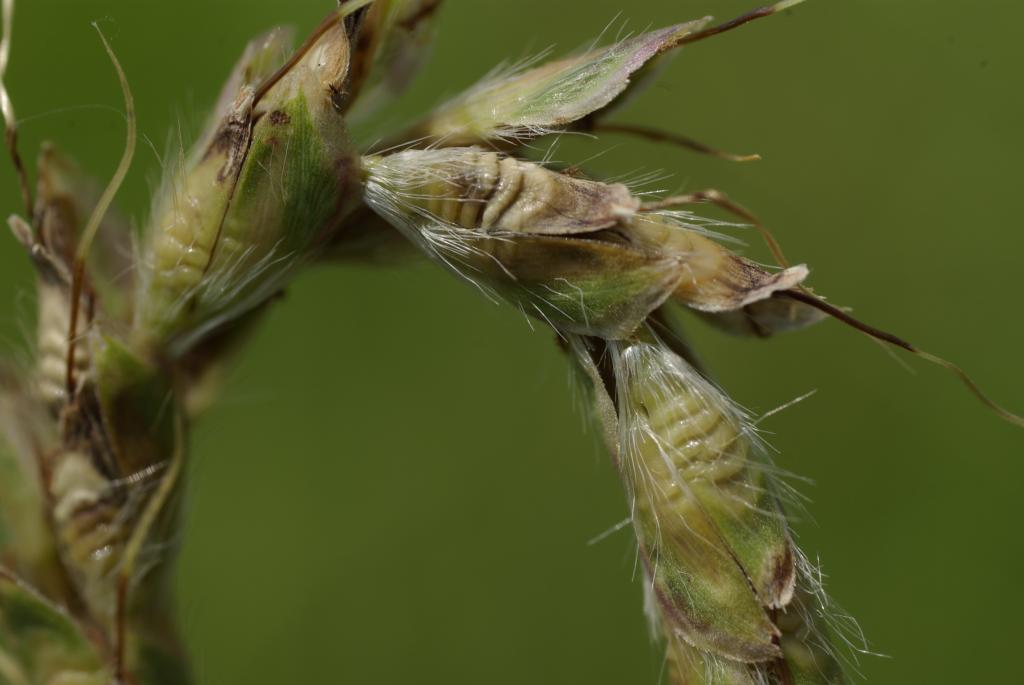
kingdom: Plantae
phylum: Tracheophyta
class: Liliopsida
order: Poales
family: Poaceae
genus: Ischaemum
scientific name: Ischaemum barbatum
